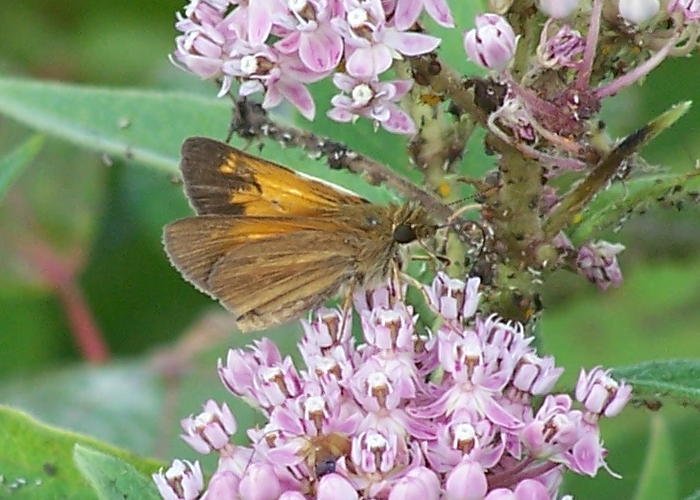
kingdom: Animalia
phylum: Arthropoda
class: Insecta
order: Lepidoptera
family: Hesperiidae
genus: Poanes
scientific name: Poanes aaroni
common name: Aaron's Skipper
